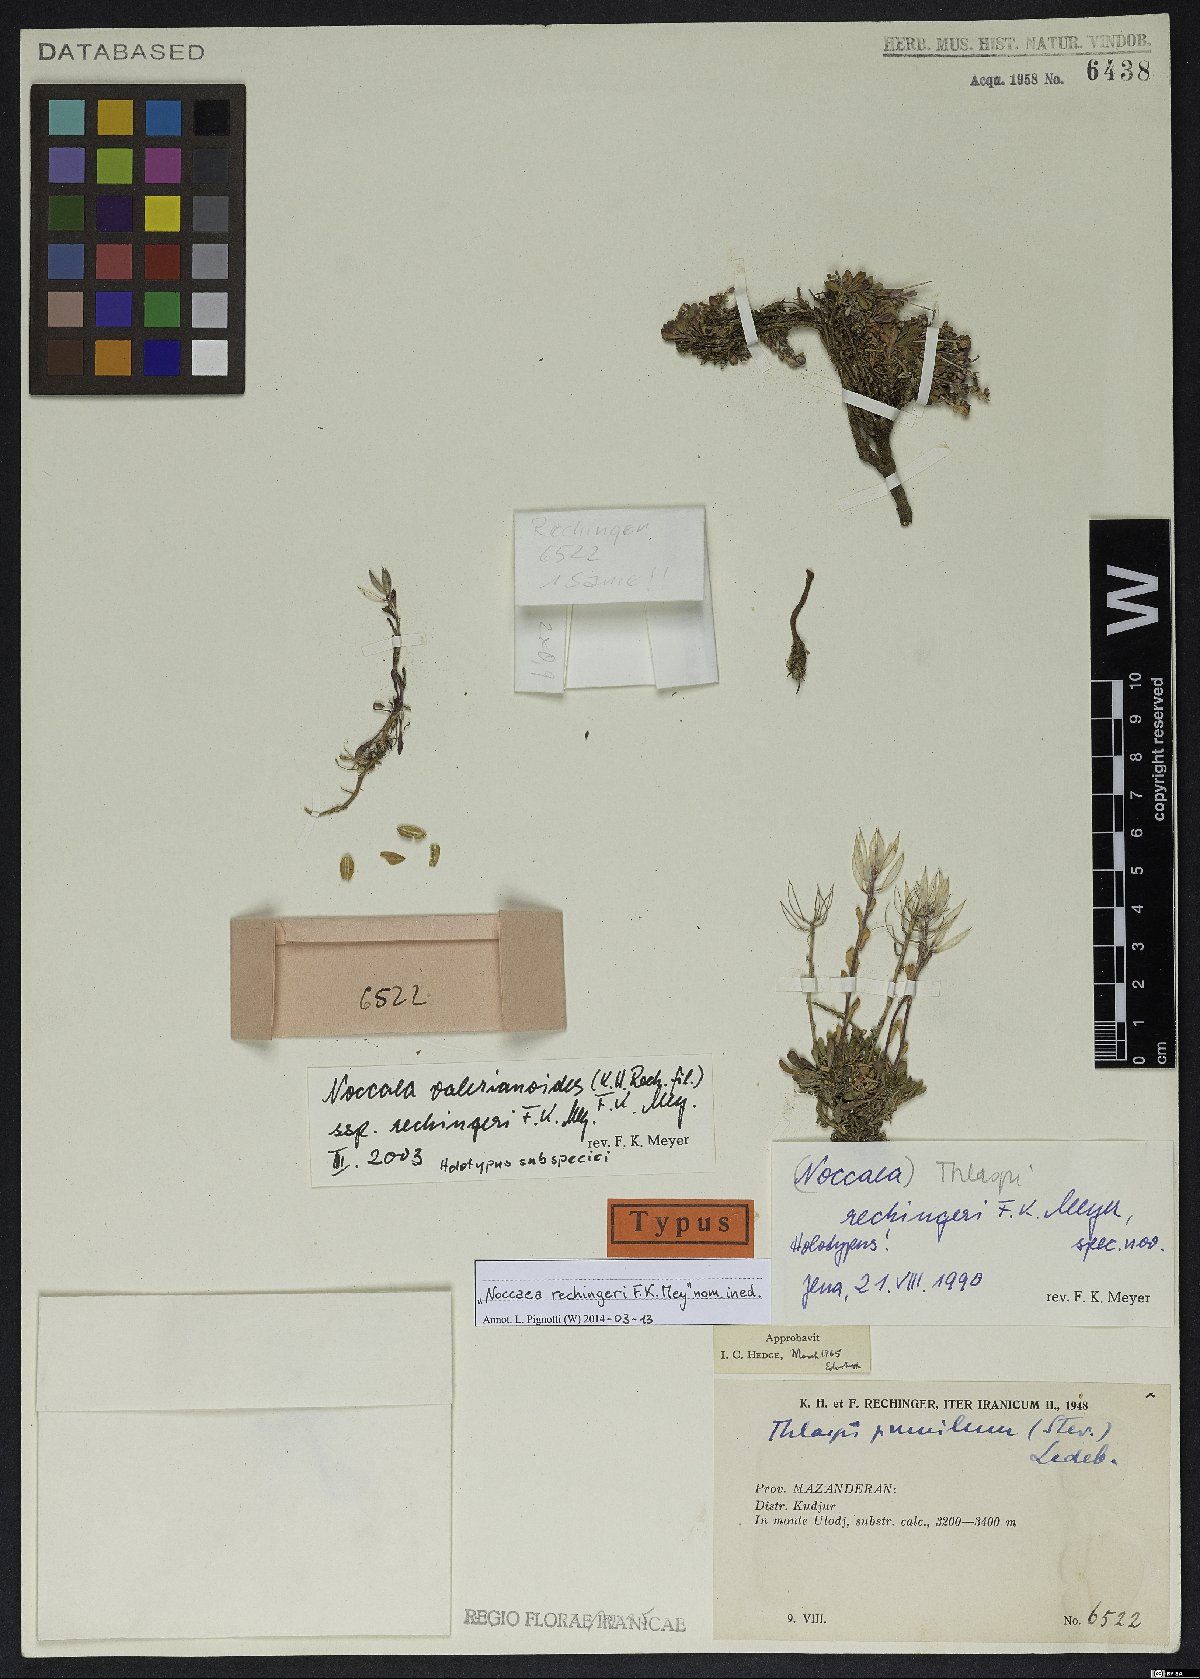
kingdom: Plantae
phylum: Tracheophyta
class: Magnoliopsida
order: Brassicales
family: Brassicaceae
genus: Noccaea
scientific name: Noccaea valerianoides
